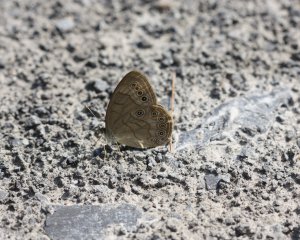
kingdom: Animalia
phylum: Arthropoda
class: Insecta
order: Lepidoptera
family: Nymphalidae
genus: Lethe
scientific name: Lethe eurydice
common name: Eyed Brown
